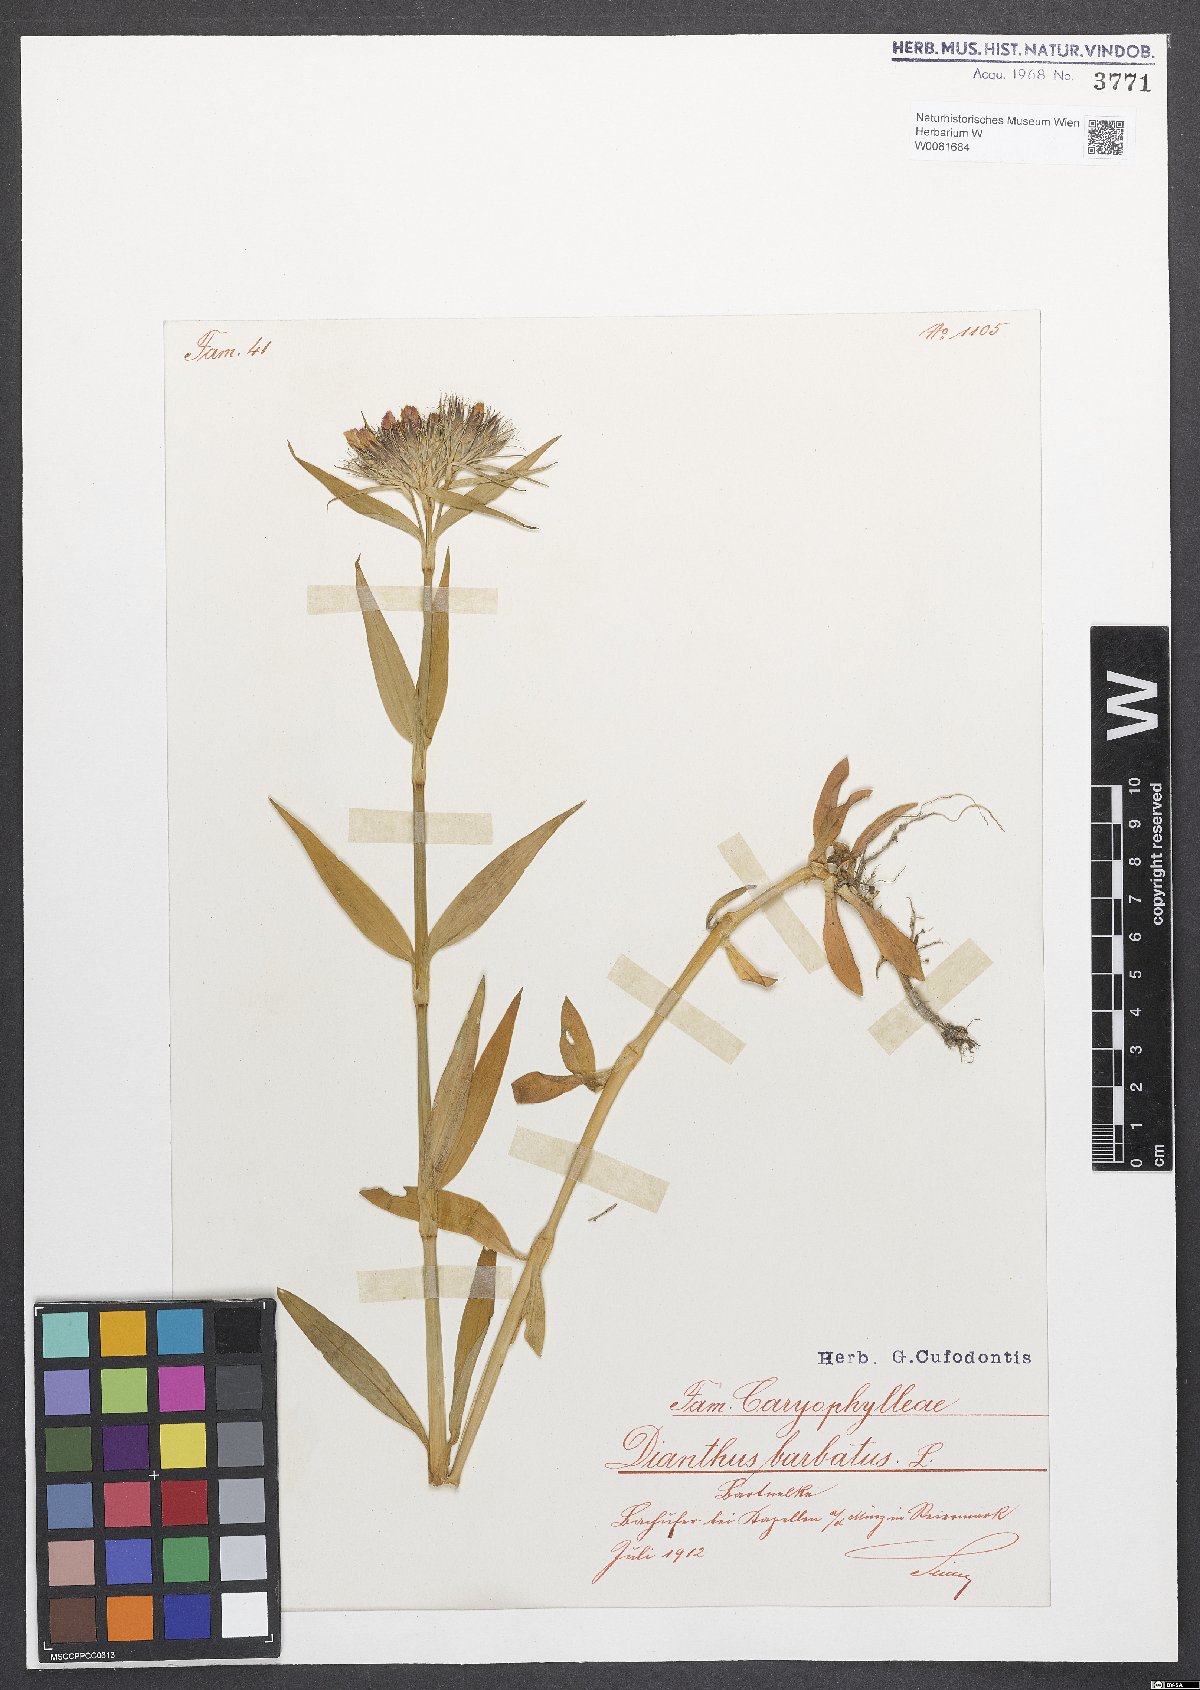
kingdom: Plantae
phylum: Tracheophyta
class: Magnoliopsida
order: Caryophyllales
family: Caryophyllaceae
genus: Dianthus
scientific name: Dianthus barbatus
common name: Sweet-william
